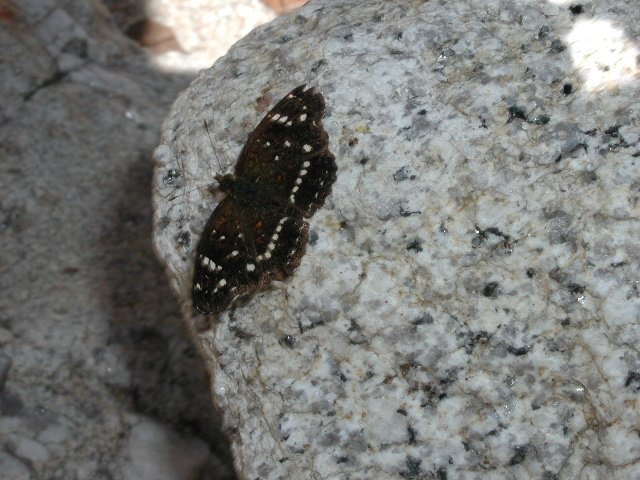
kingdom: Animalia
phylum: Arthropoda
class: Insecta
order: Lepidoptera
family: Nymphalidae
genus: Anthanassa
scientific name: Anthanassa texana
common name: Texan Crescent
